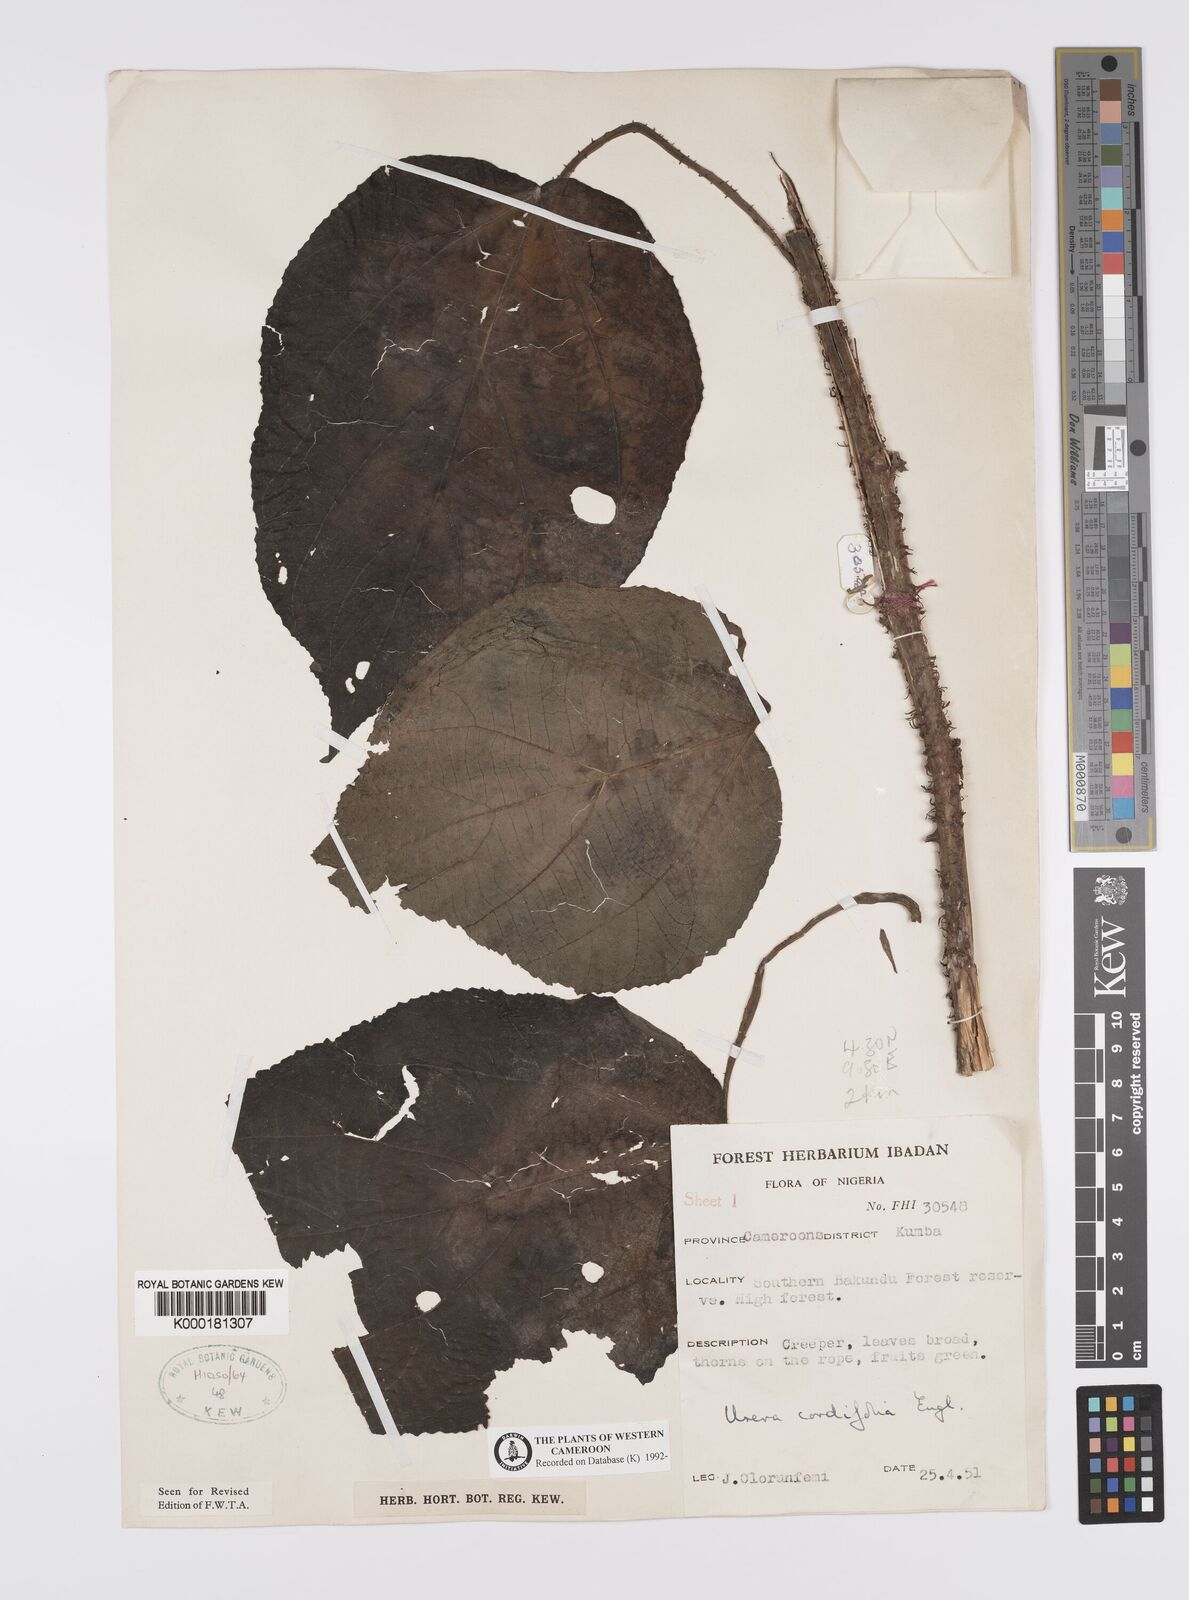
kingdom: Plantae
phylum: Tracheophyta
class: Magnoliopsida
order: Rosales
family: Urticaceae
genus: Scepocarpus
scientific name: Scepocarpus cordifolius
